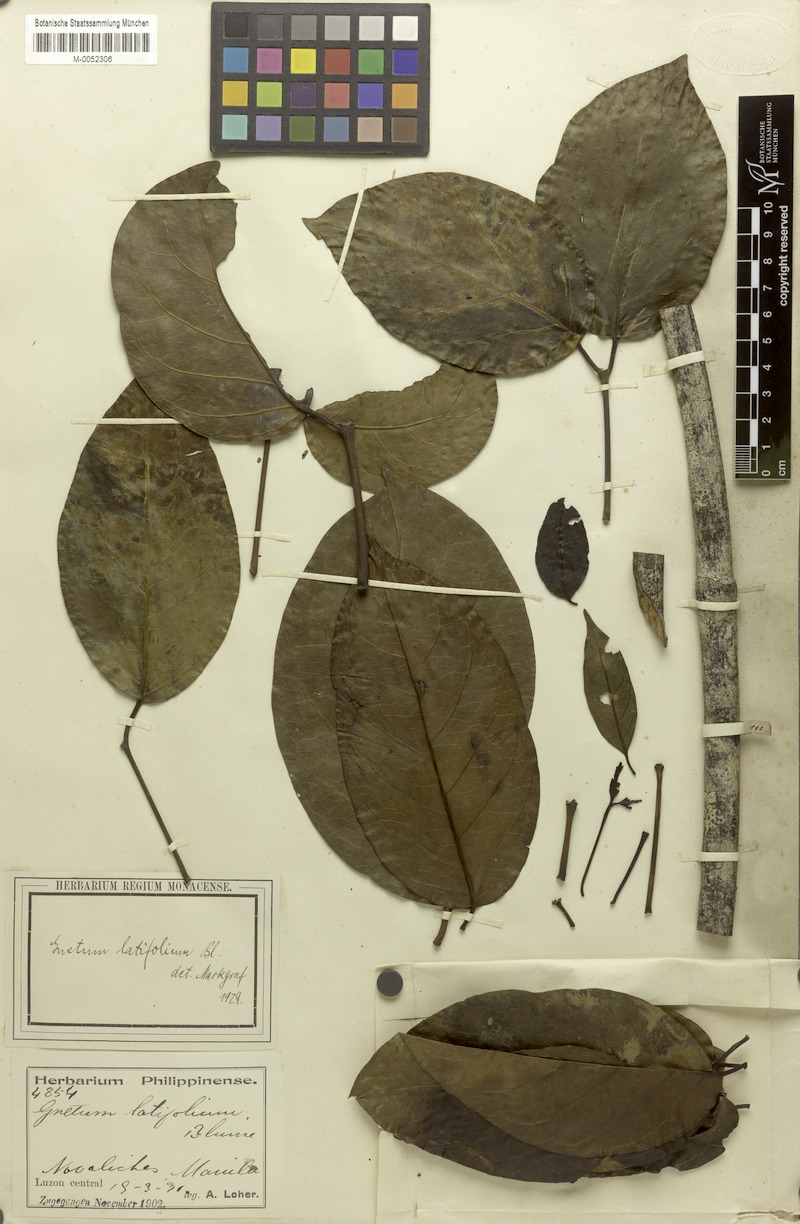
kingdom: Plantae
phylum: Tracheophyta
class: Gnetopsida
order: Gnetales
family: Gnetaceae
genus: Gnetum
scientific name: Gnetum latifolium
